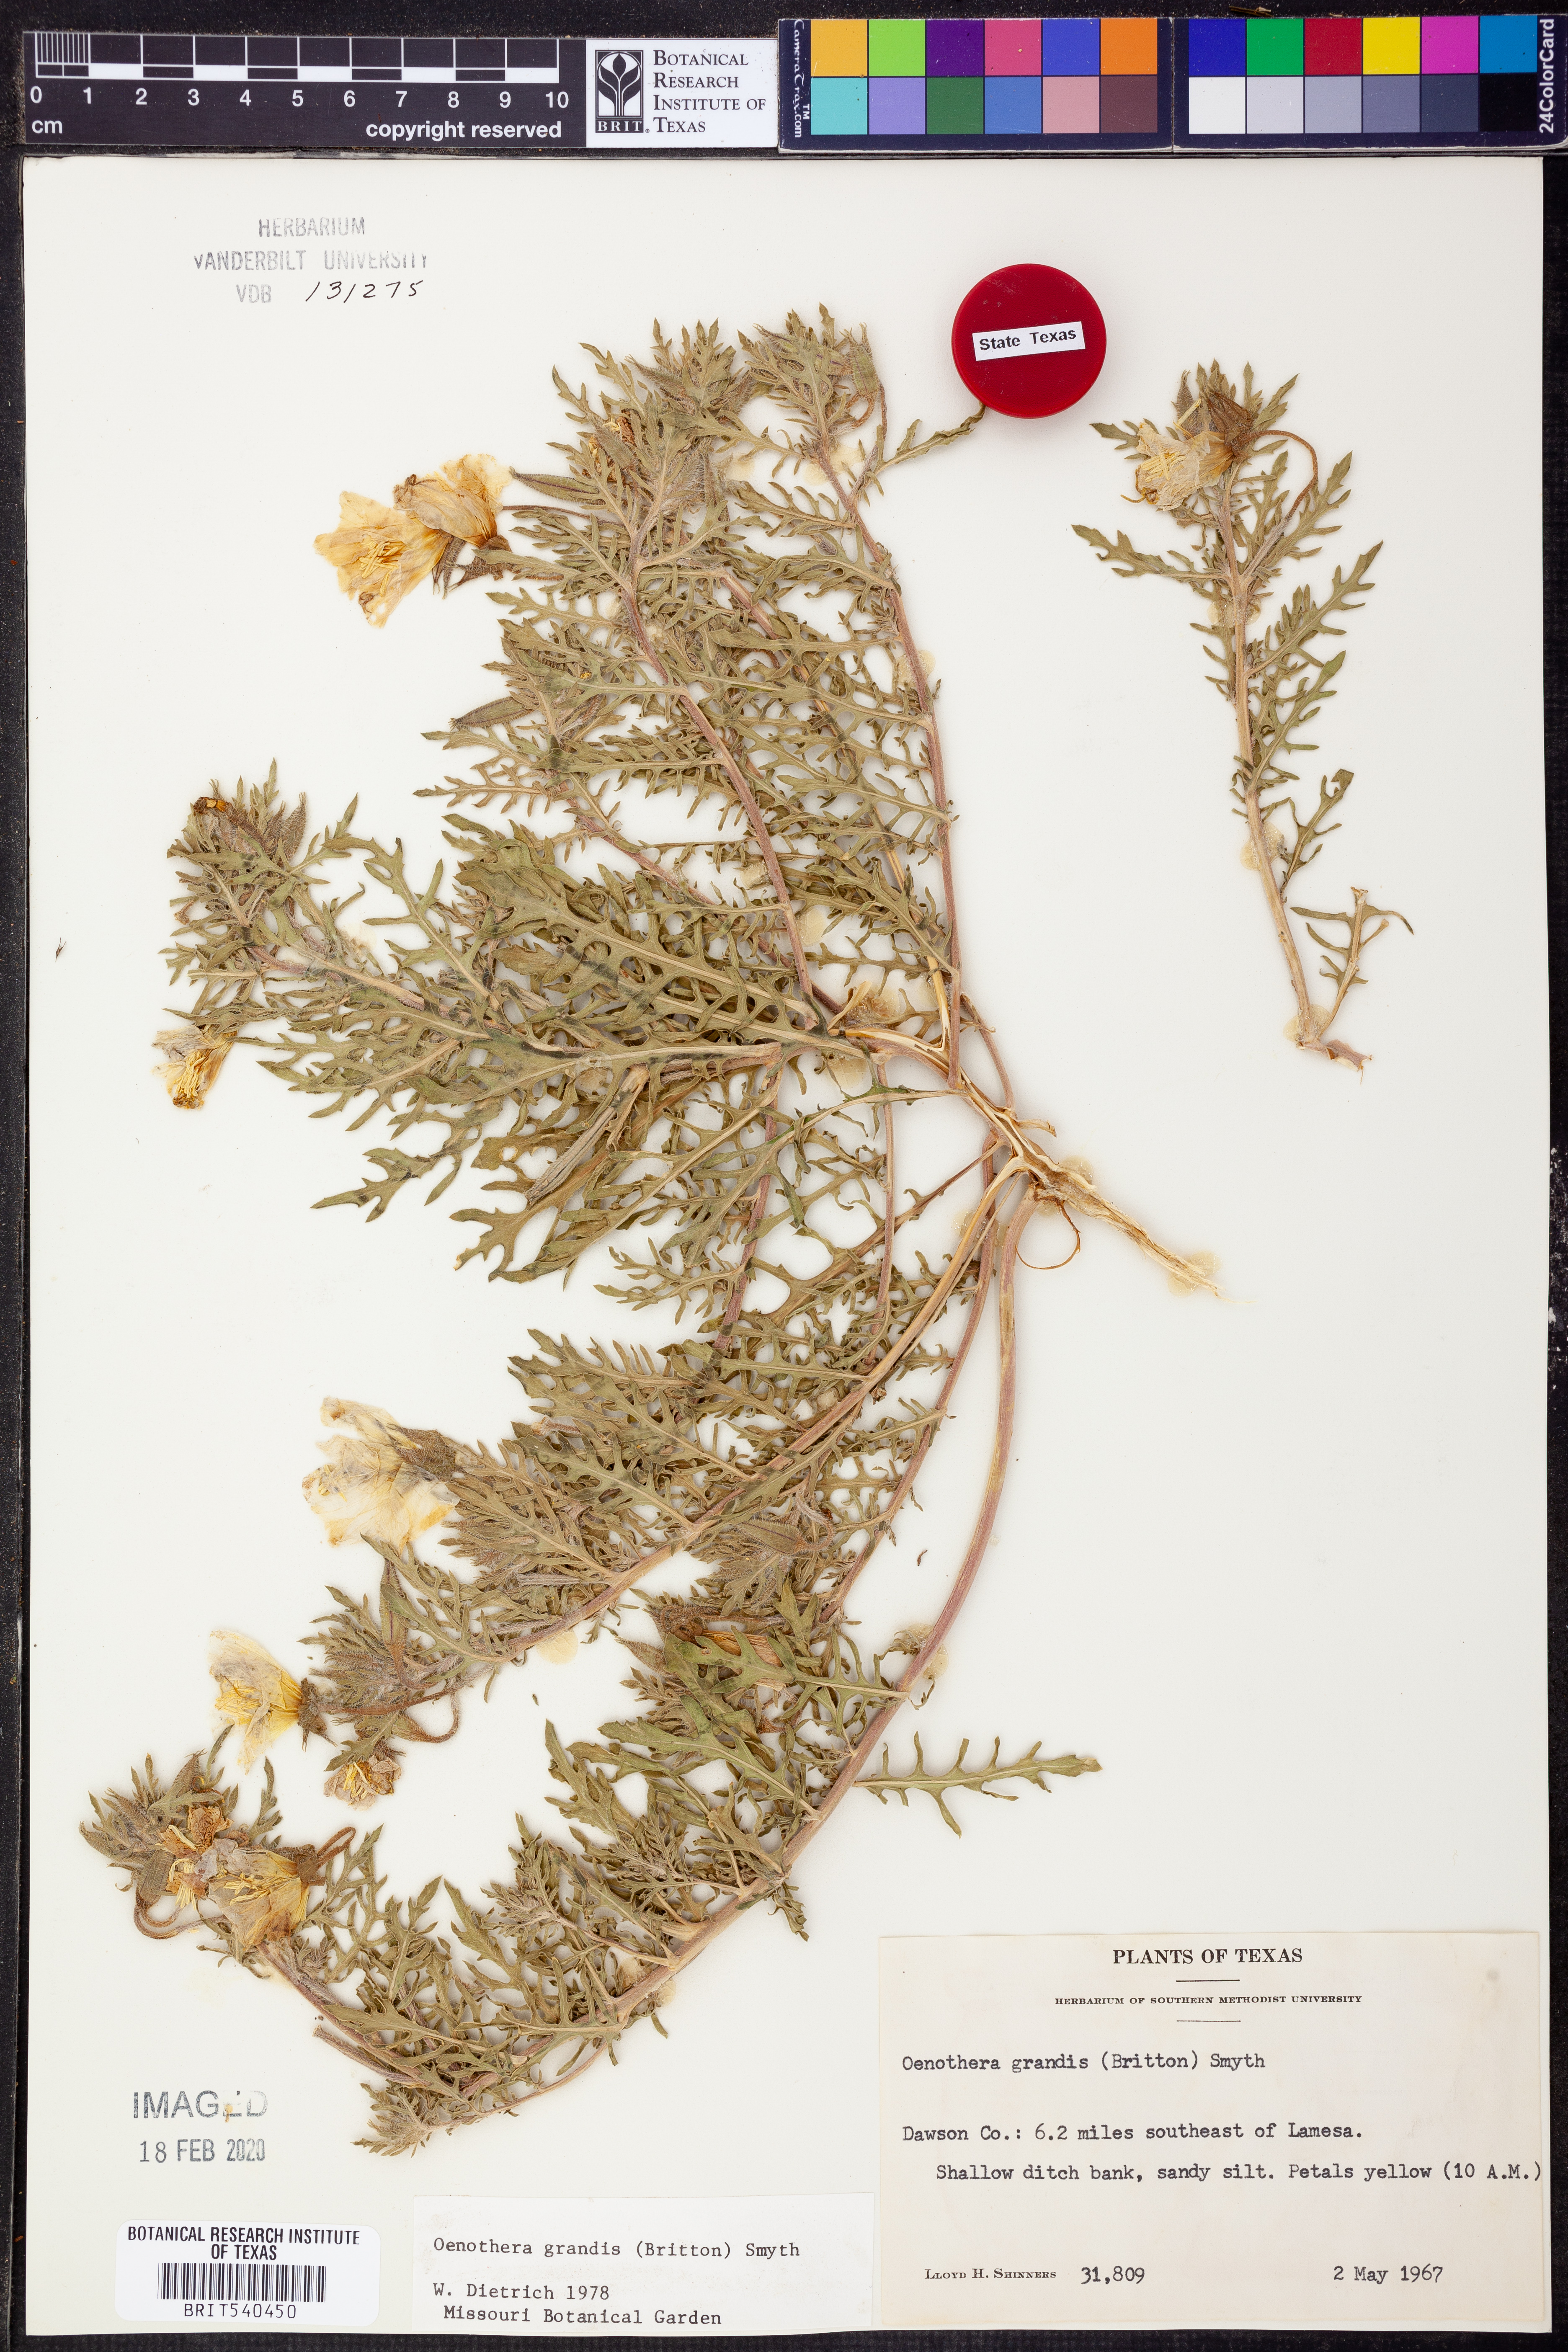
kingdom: Plantae
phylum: Tracheophyta
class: Magnoliopsida
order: Myrtales
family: Onagraceae
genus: Oenothera
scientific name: Oenothera grandis
